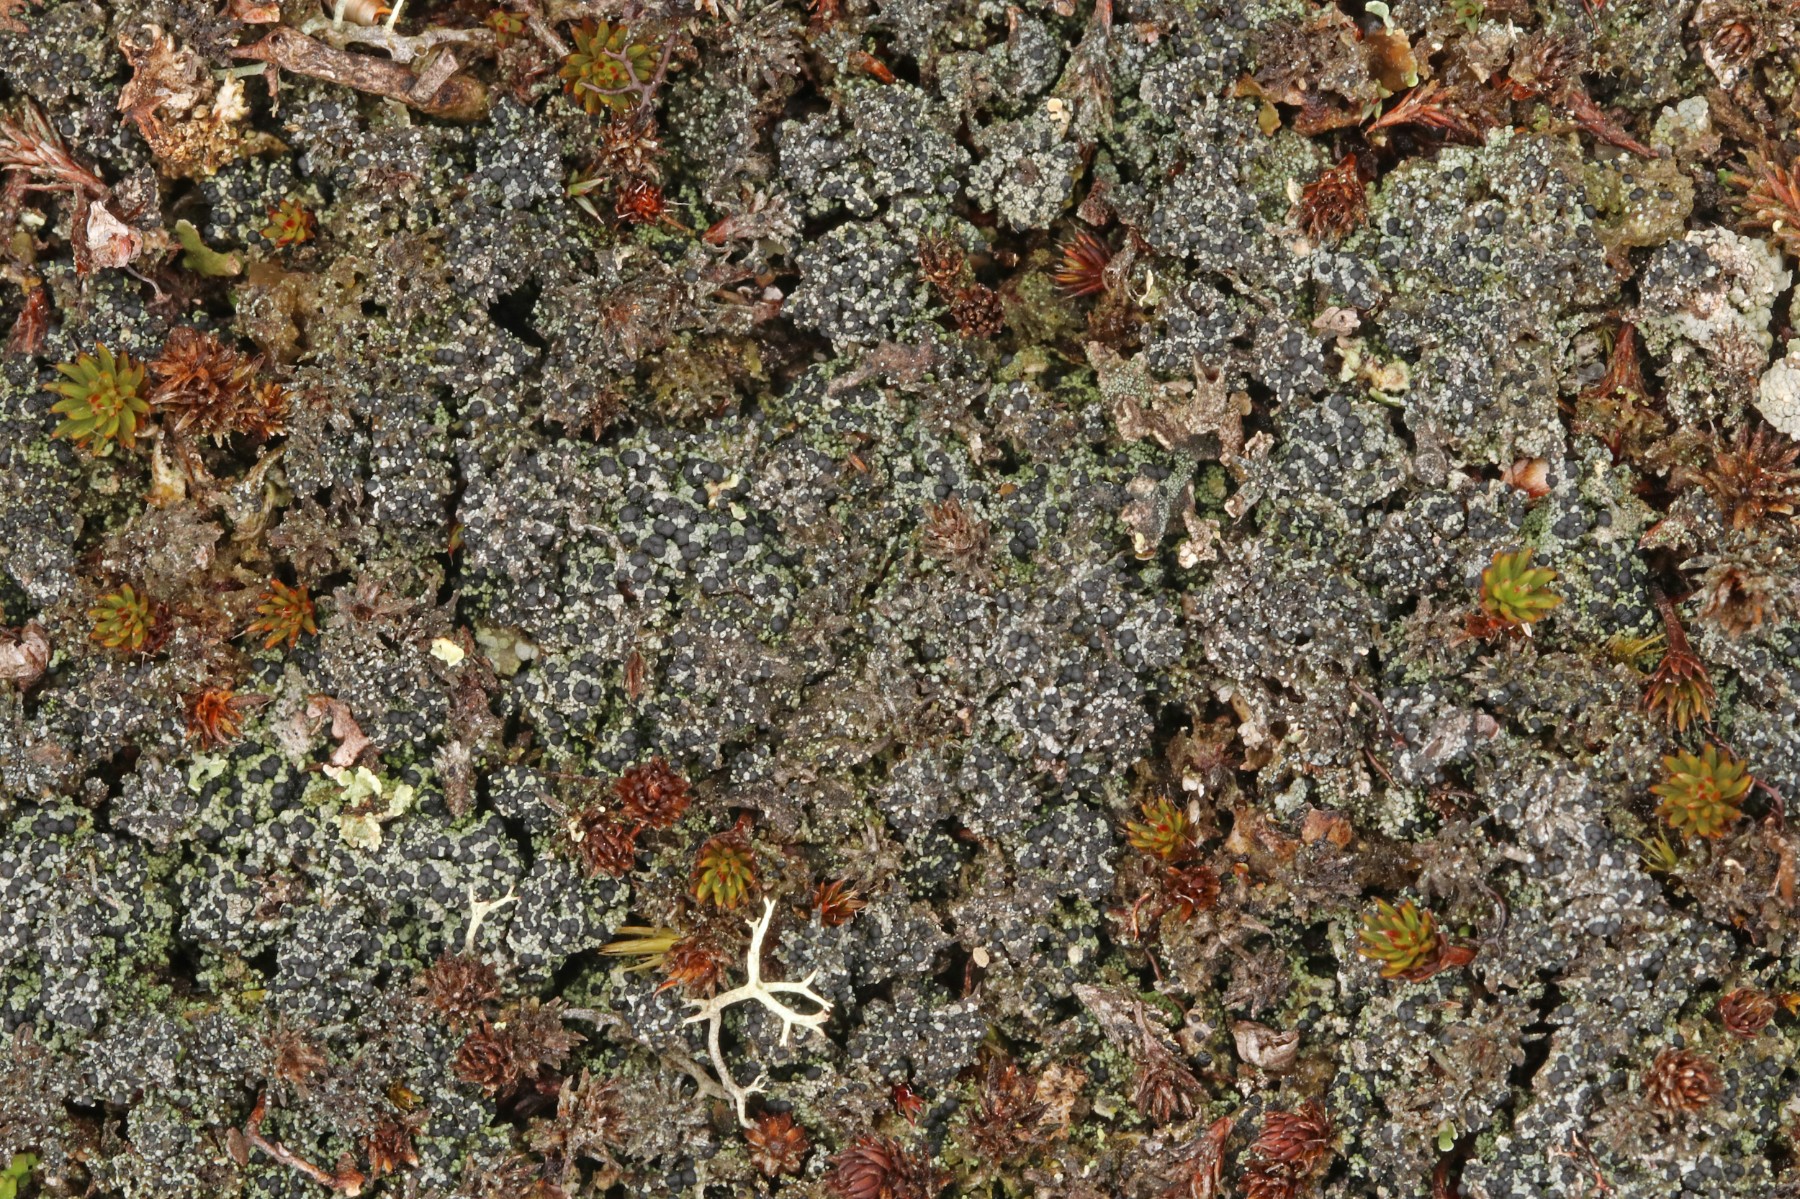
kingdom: Fungi
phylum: Ascomycota
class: Lecanoromycetes
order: Lecanorales
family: Byssolomataceae
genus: Micarea
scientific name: Micarea lignaria
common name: tørve-knaplav
